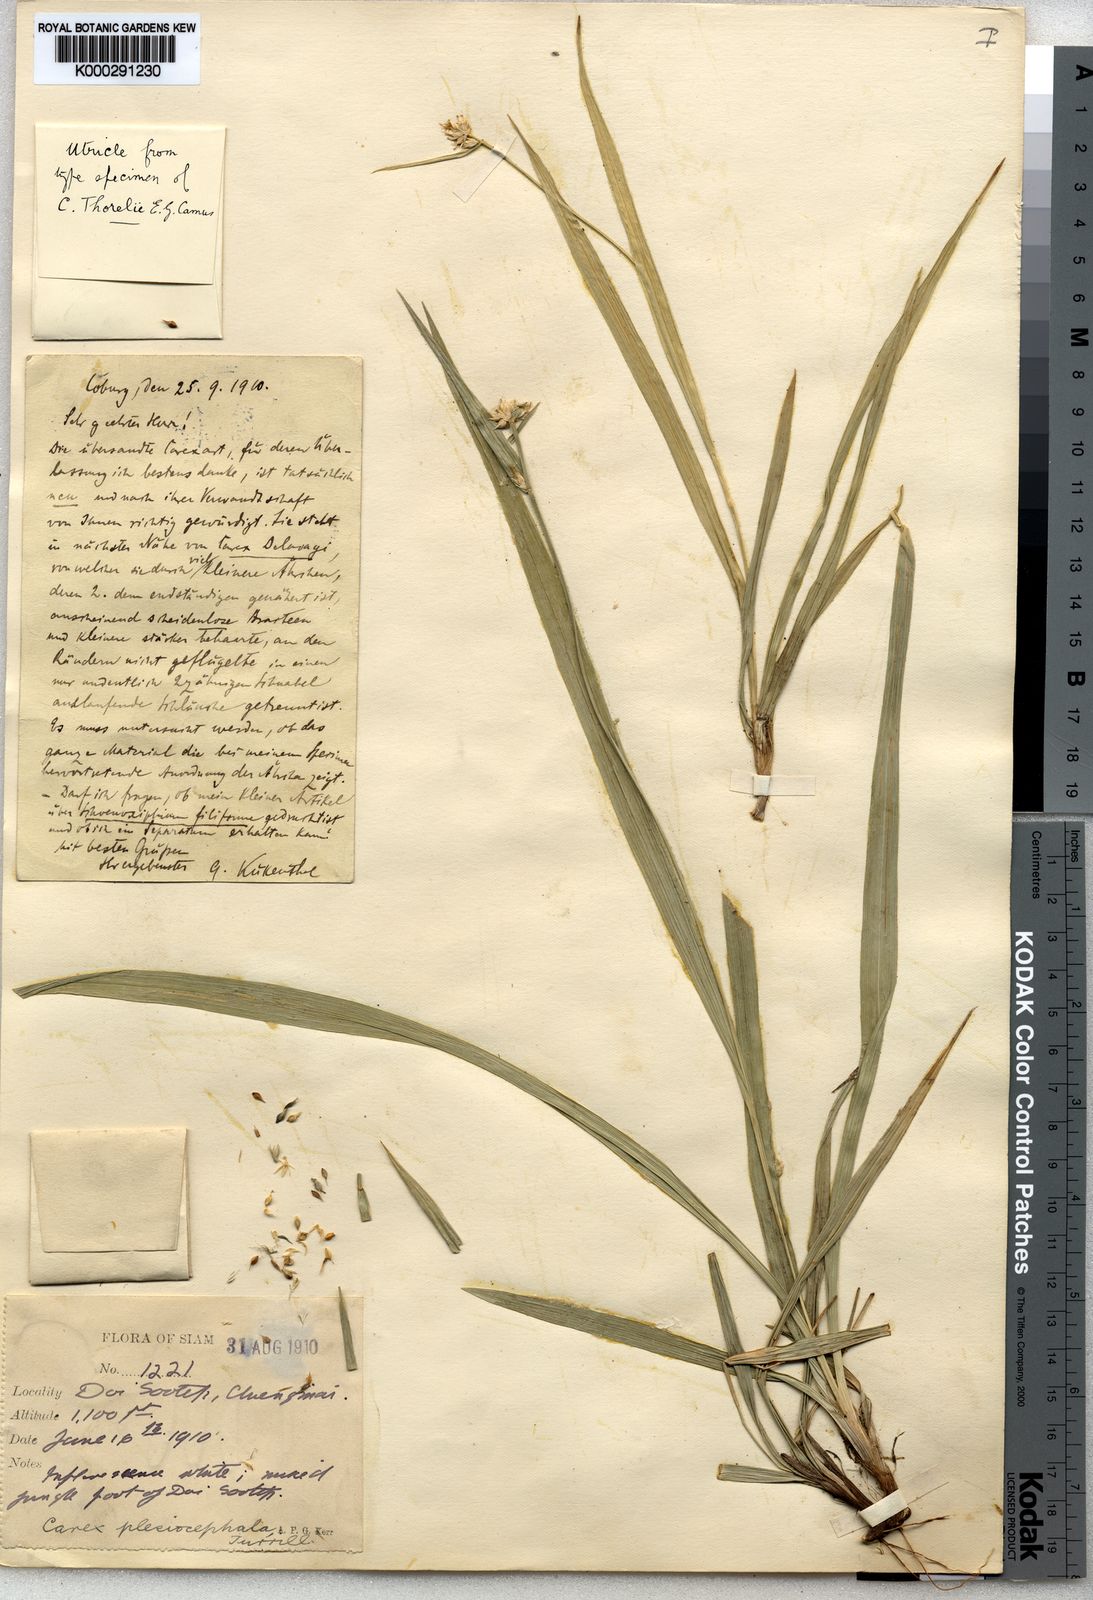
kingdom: Plantae
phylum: Tracheophyta
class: Liliopsida
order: Poales
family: Cyperaceae
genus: Carex
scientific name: Carex tricephala
